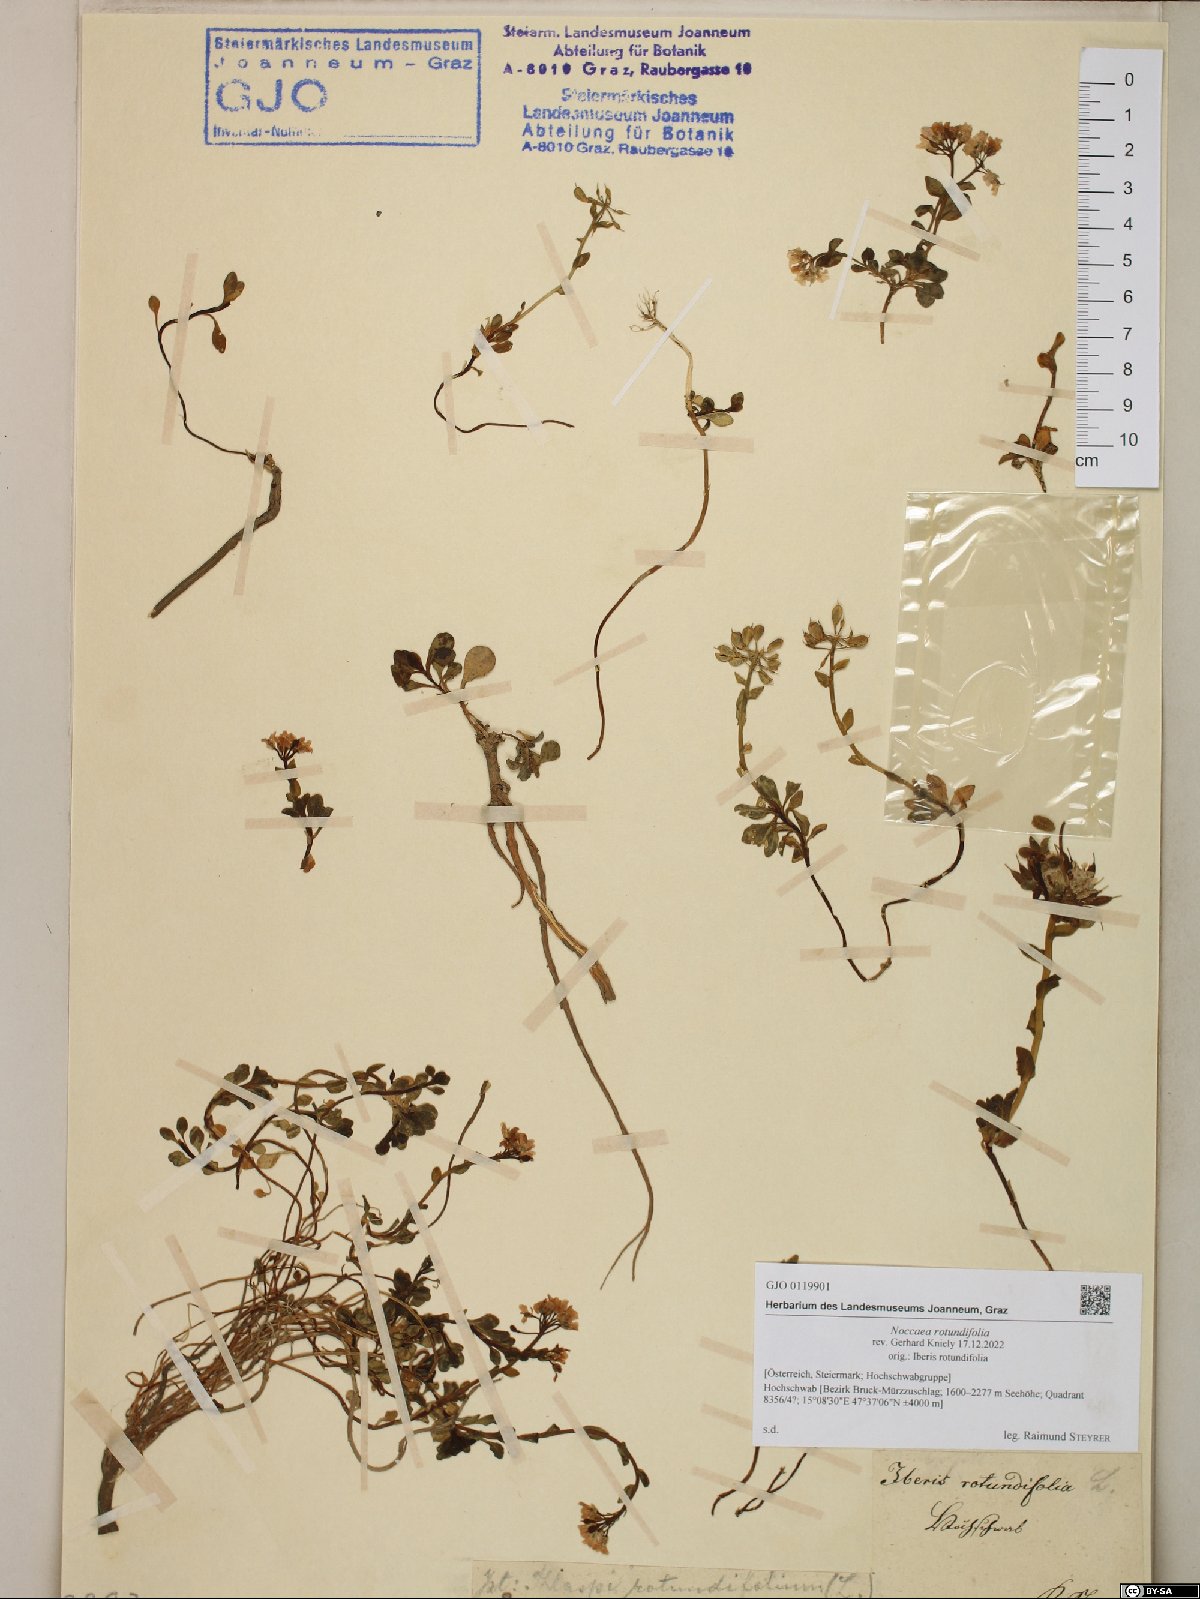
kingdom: Plantae
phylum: Tracheophyta
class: Magnoliopsida
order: Brassicales
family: Brassicaceae
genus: Noccaea
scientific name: Noccaea rotundifolia
